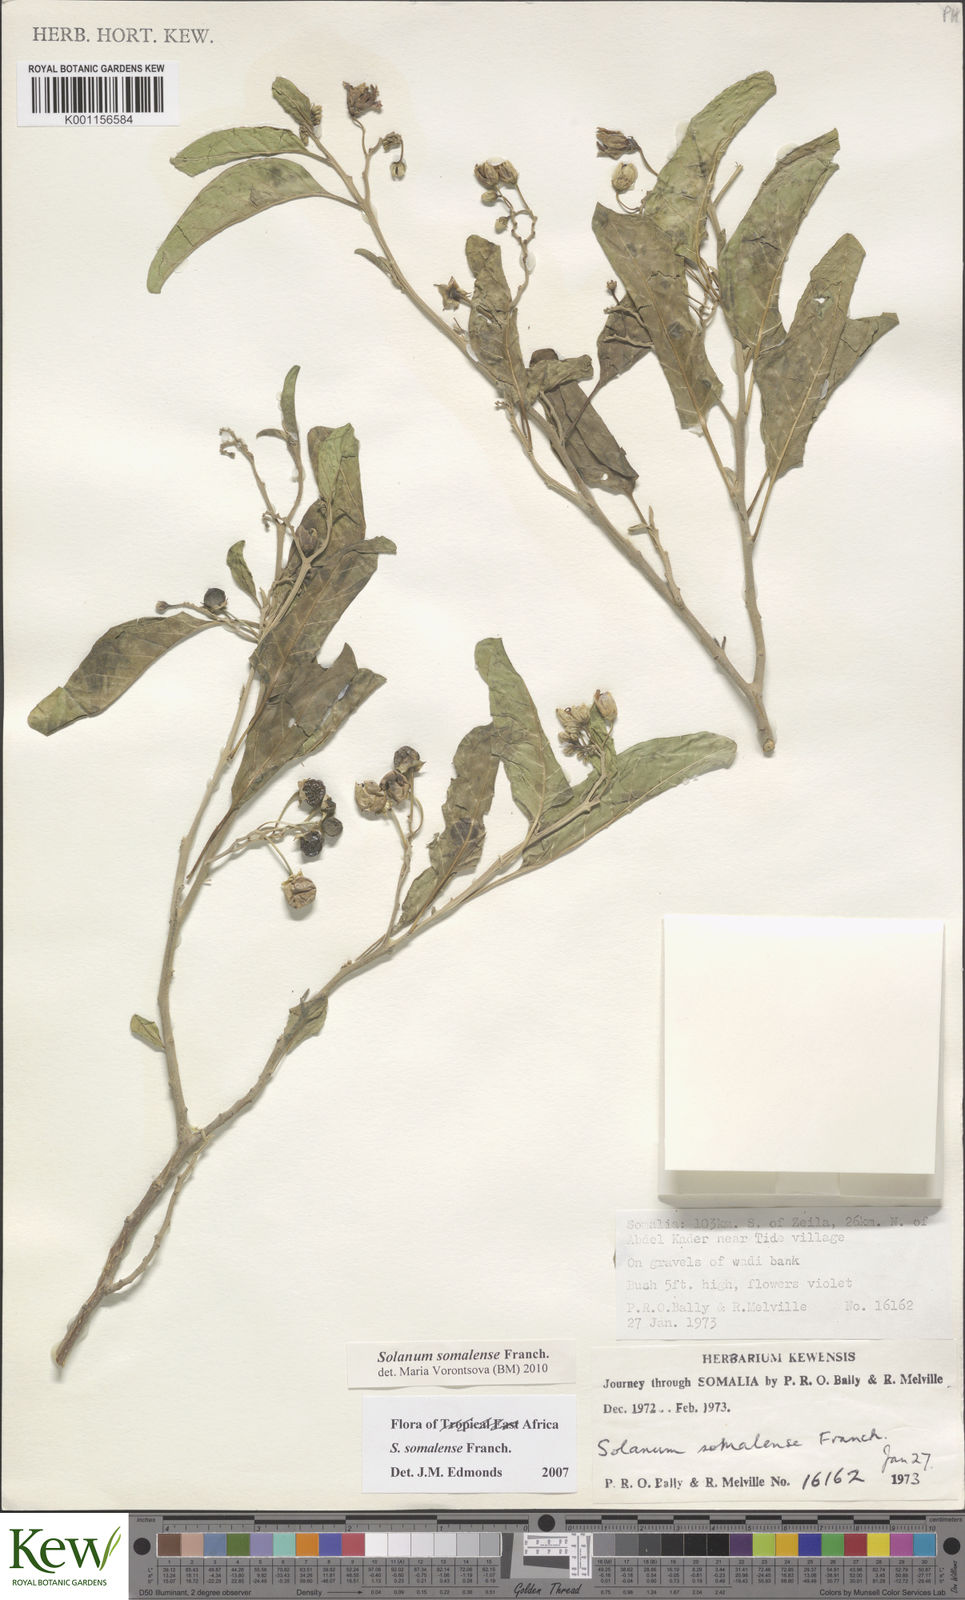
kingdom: Plantae
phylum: Tracheophyta
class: Magnoliopsida
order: Solanales
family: Solanaceae
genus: Solanum
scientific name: Solanum somalense
